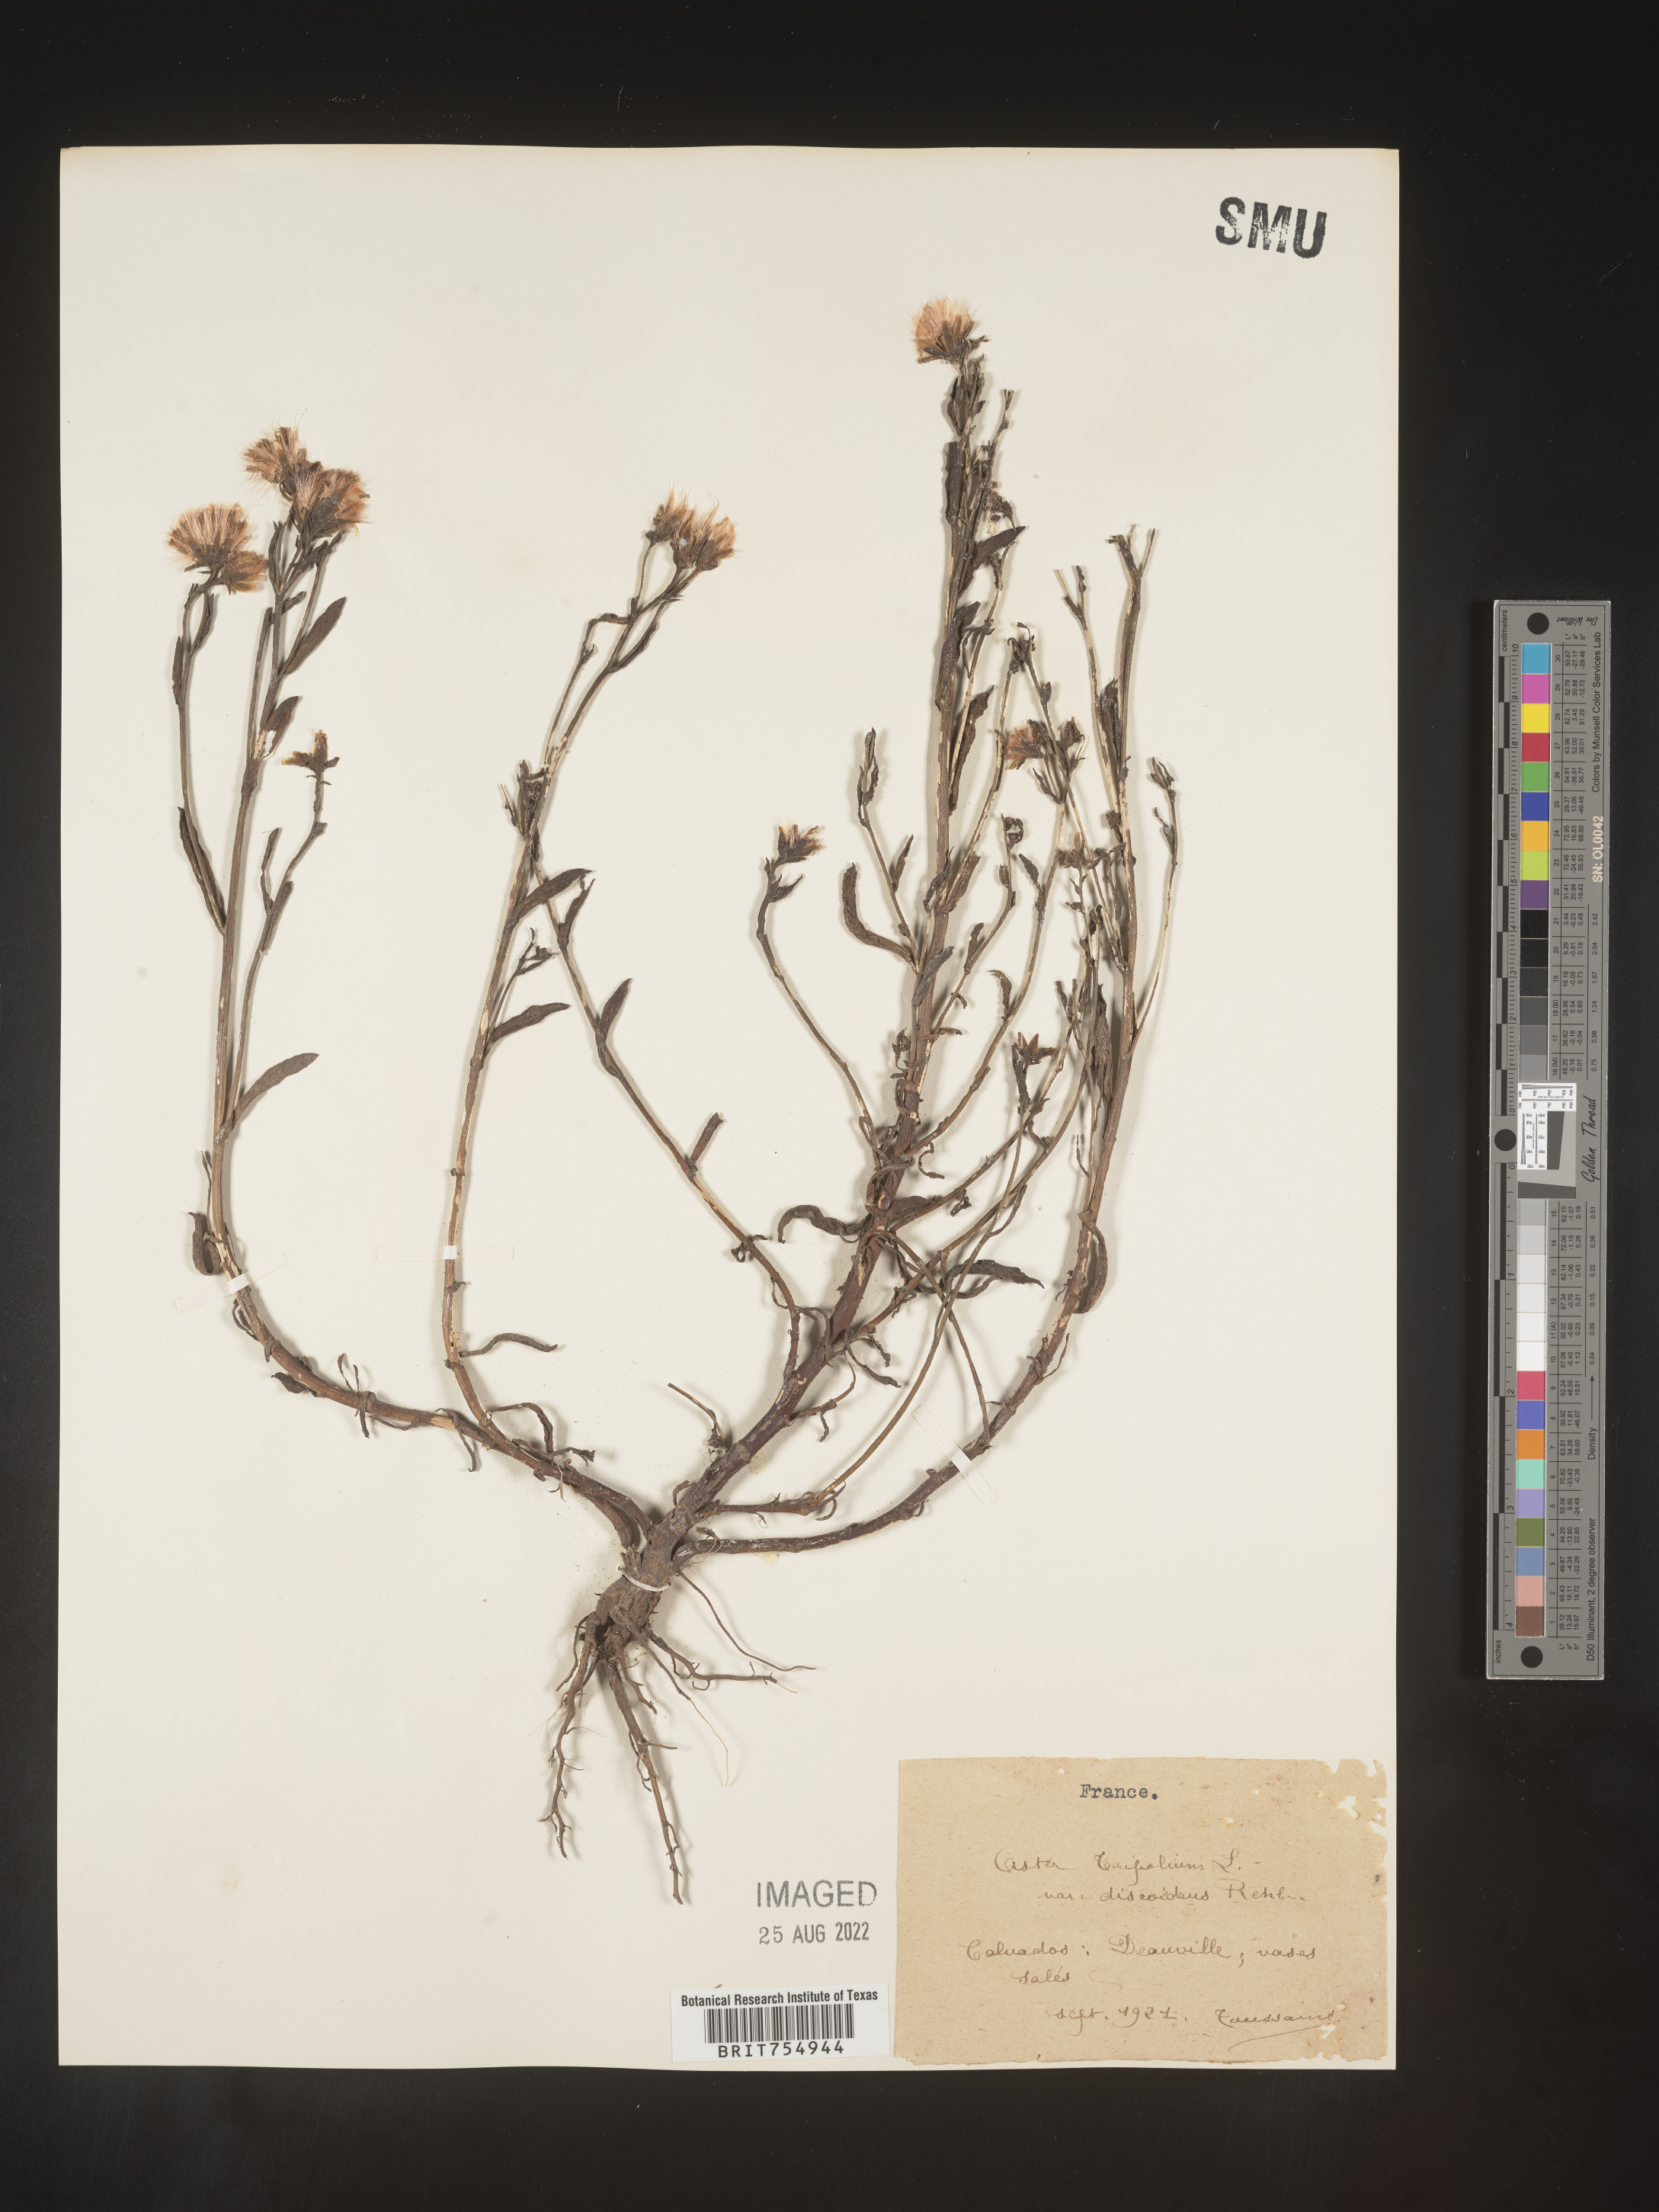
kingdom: Plantae
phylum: Tracheophyta
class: Magnoliopsida
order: Asterales
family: Asteraceae
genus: Symphyotrichum
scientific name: Symphyotrichum
